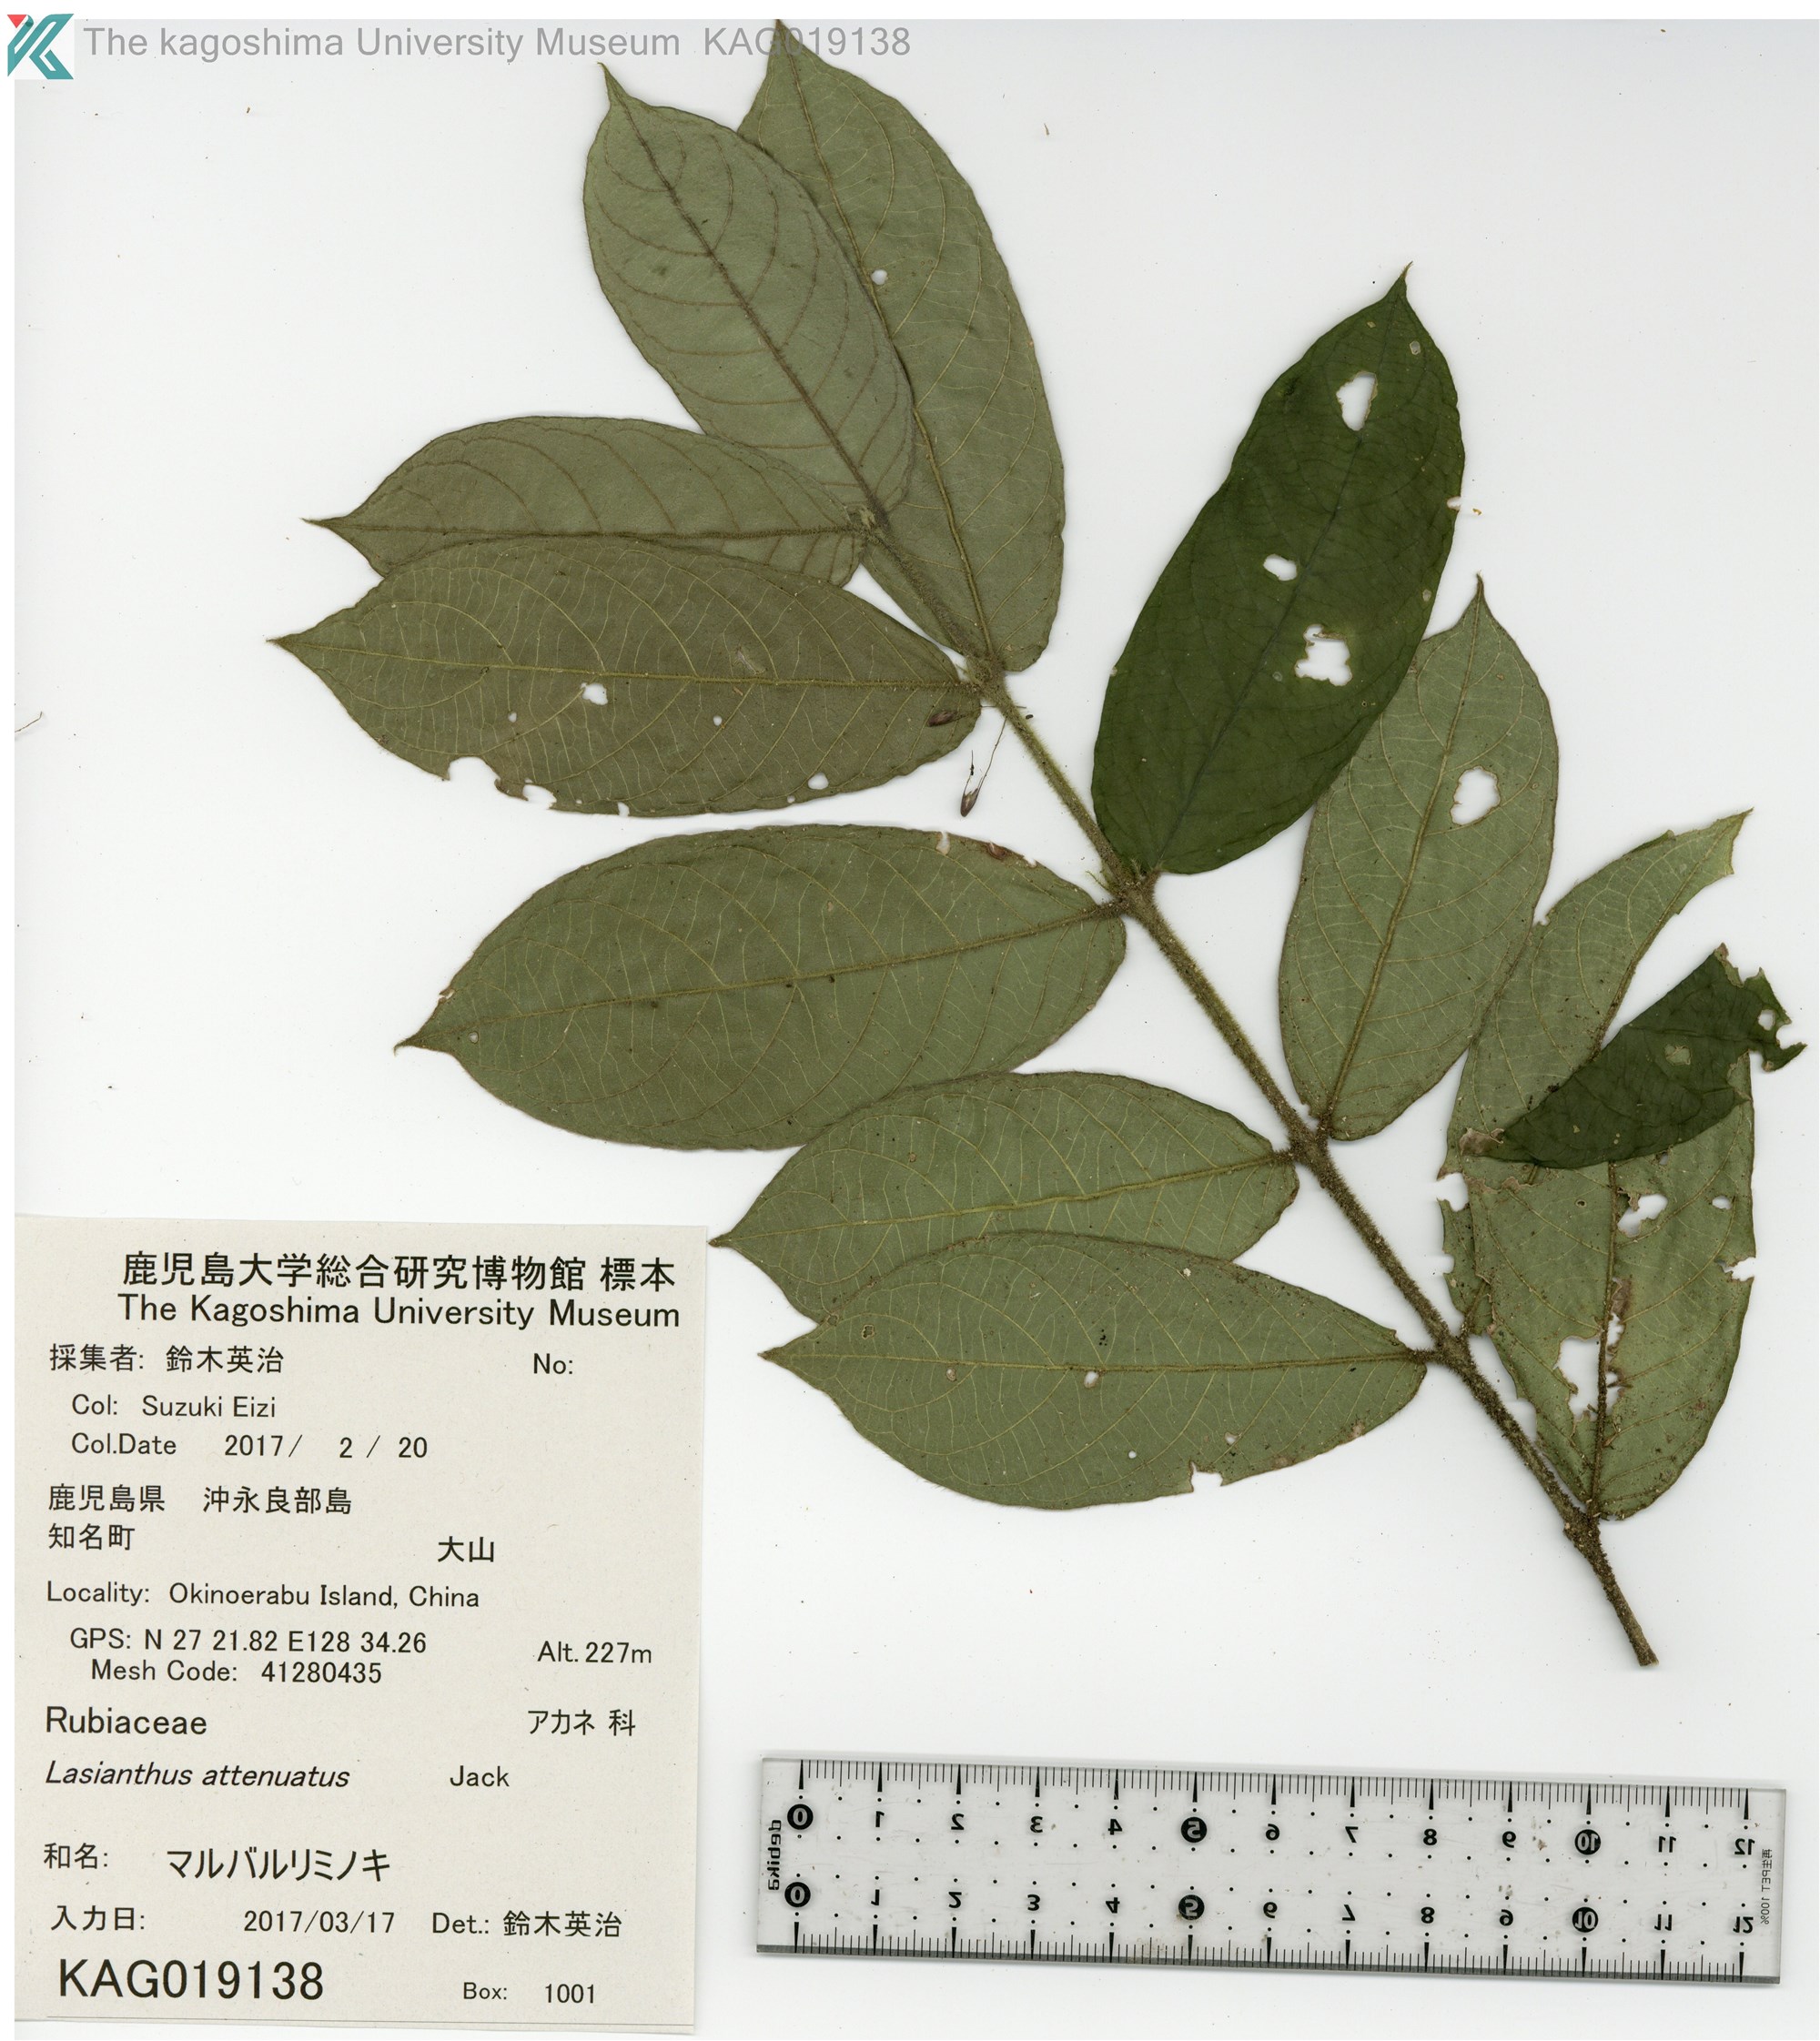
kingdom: Plantae
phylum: Tracheophyta
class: Magnoliopsida
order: Gentianales
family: Rubiaceae
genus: Lasianthus
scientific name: Lasianthus attenuatus
